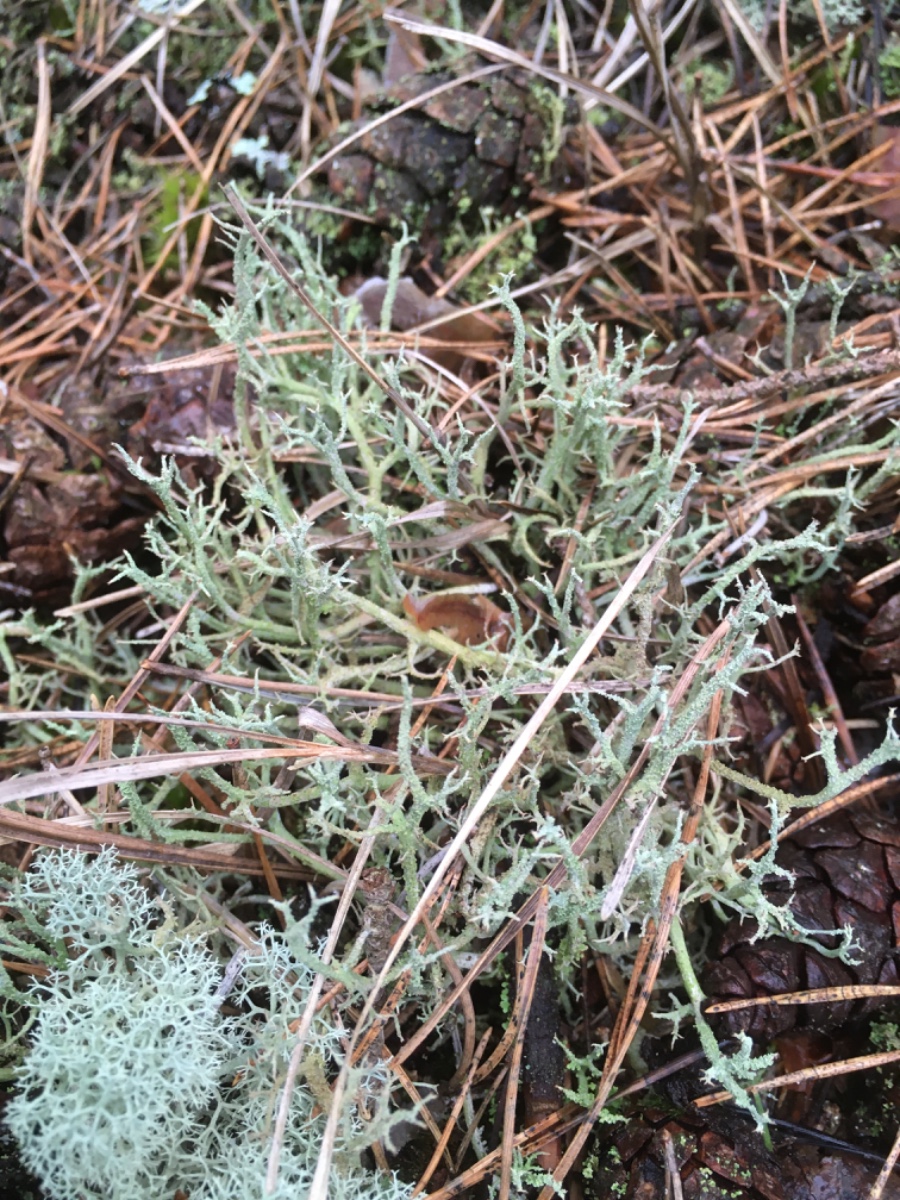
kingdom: Fungi
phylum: Ascomycota
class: Lecanoromycetes
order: Lecanorales
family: Cladoniaceae
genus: Cladonia
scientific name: Cladonia scabriuscula
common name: ru bægerlav
